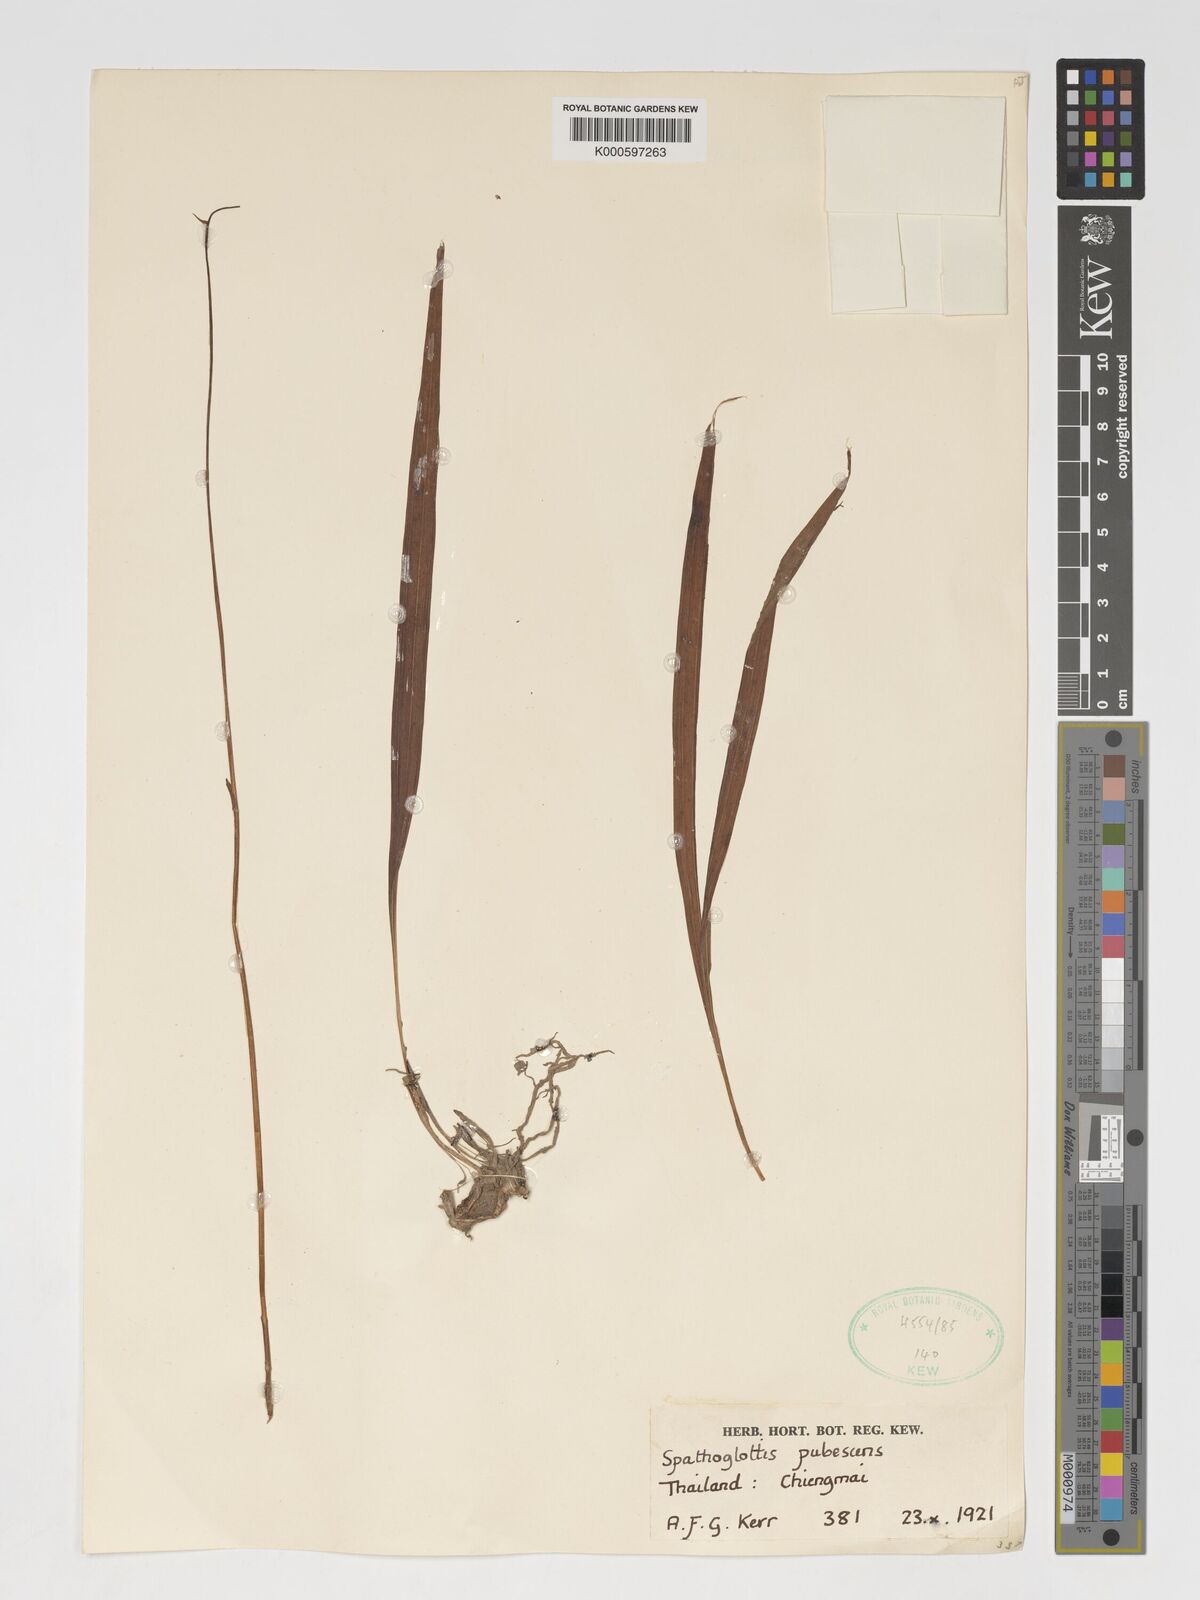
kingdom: Plantae
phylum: Tracheophyta
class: Liliopsida
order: Asparagales
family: Orchidaceae
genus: Spathoglottis
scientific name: Spathoglottis pubescens
